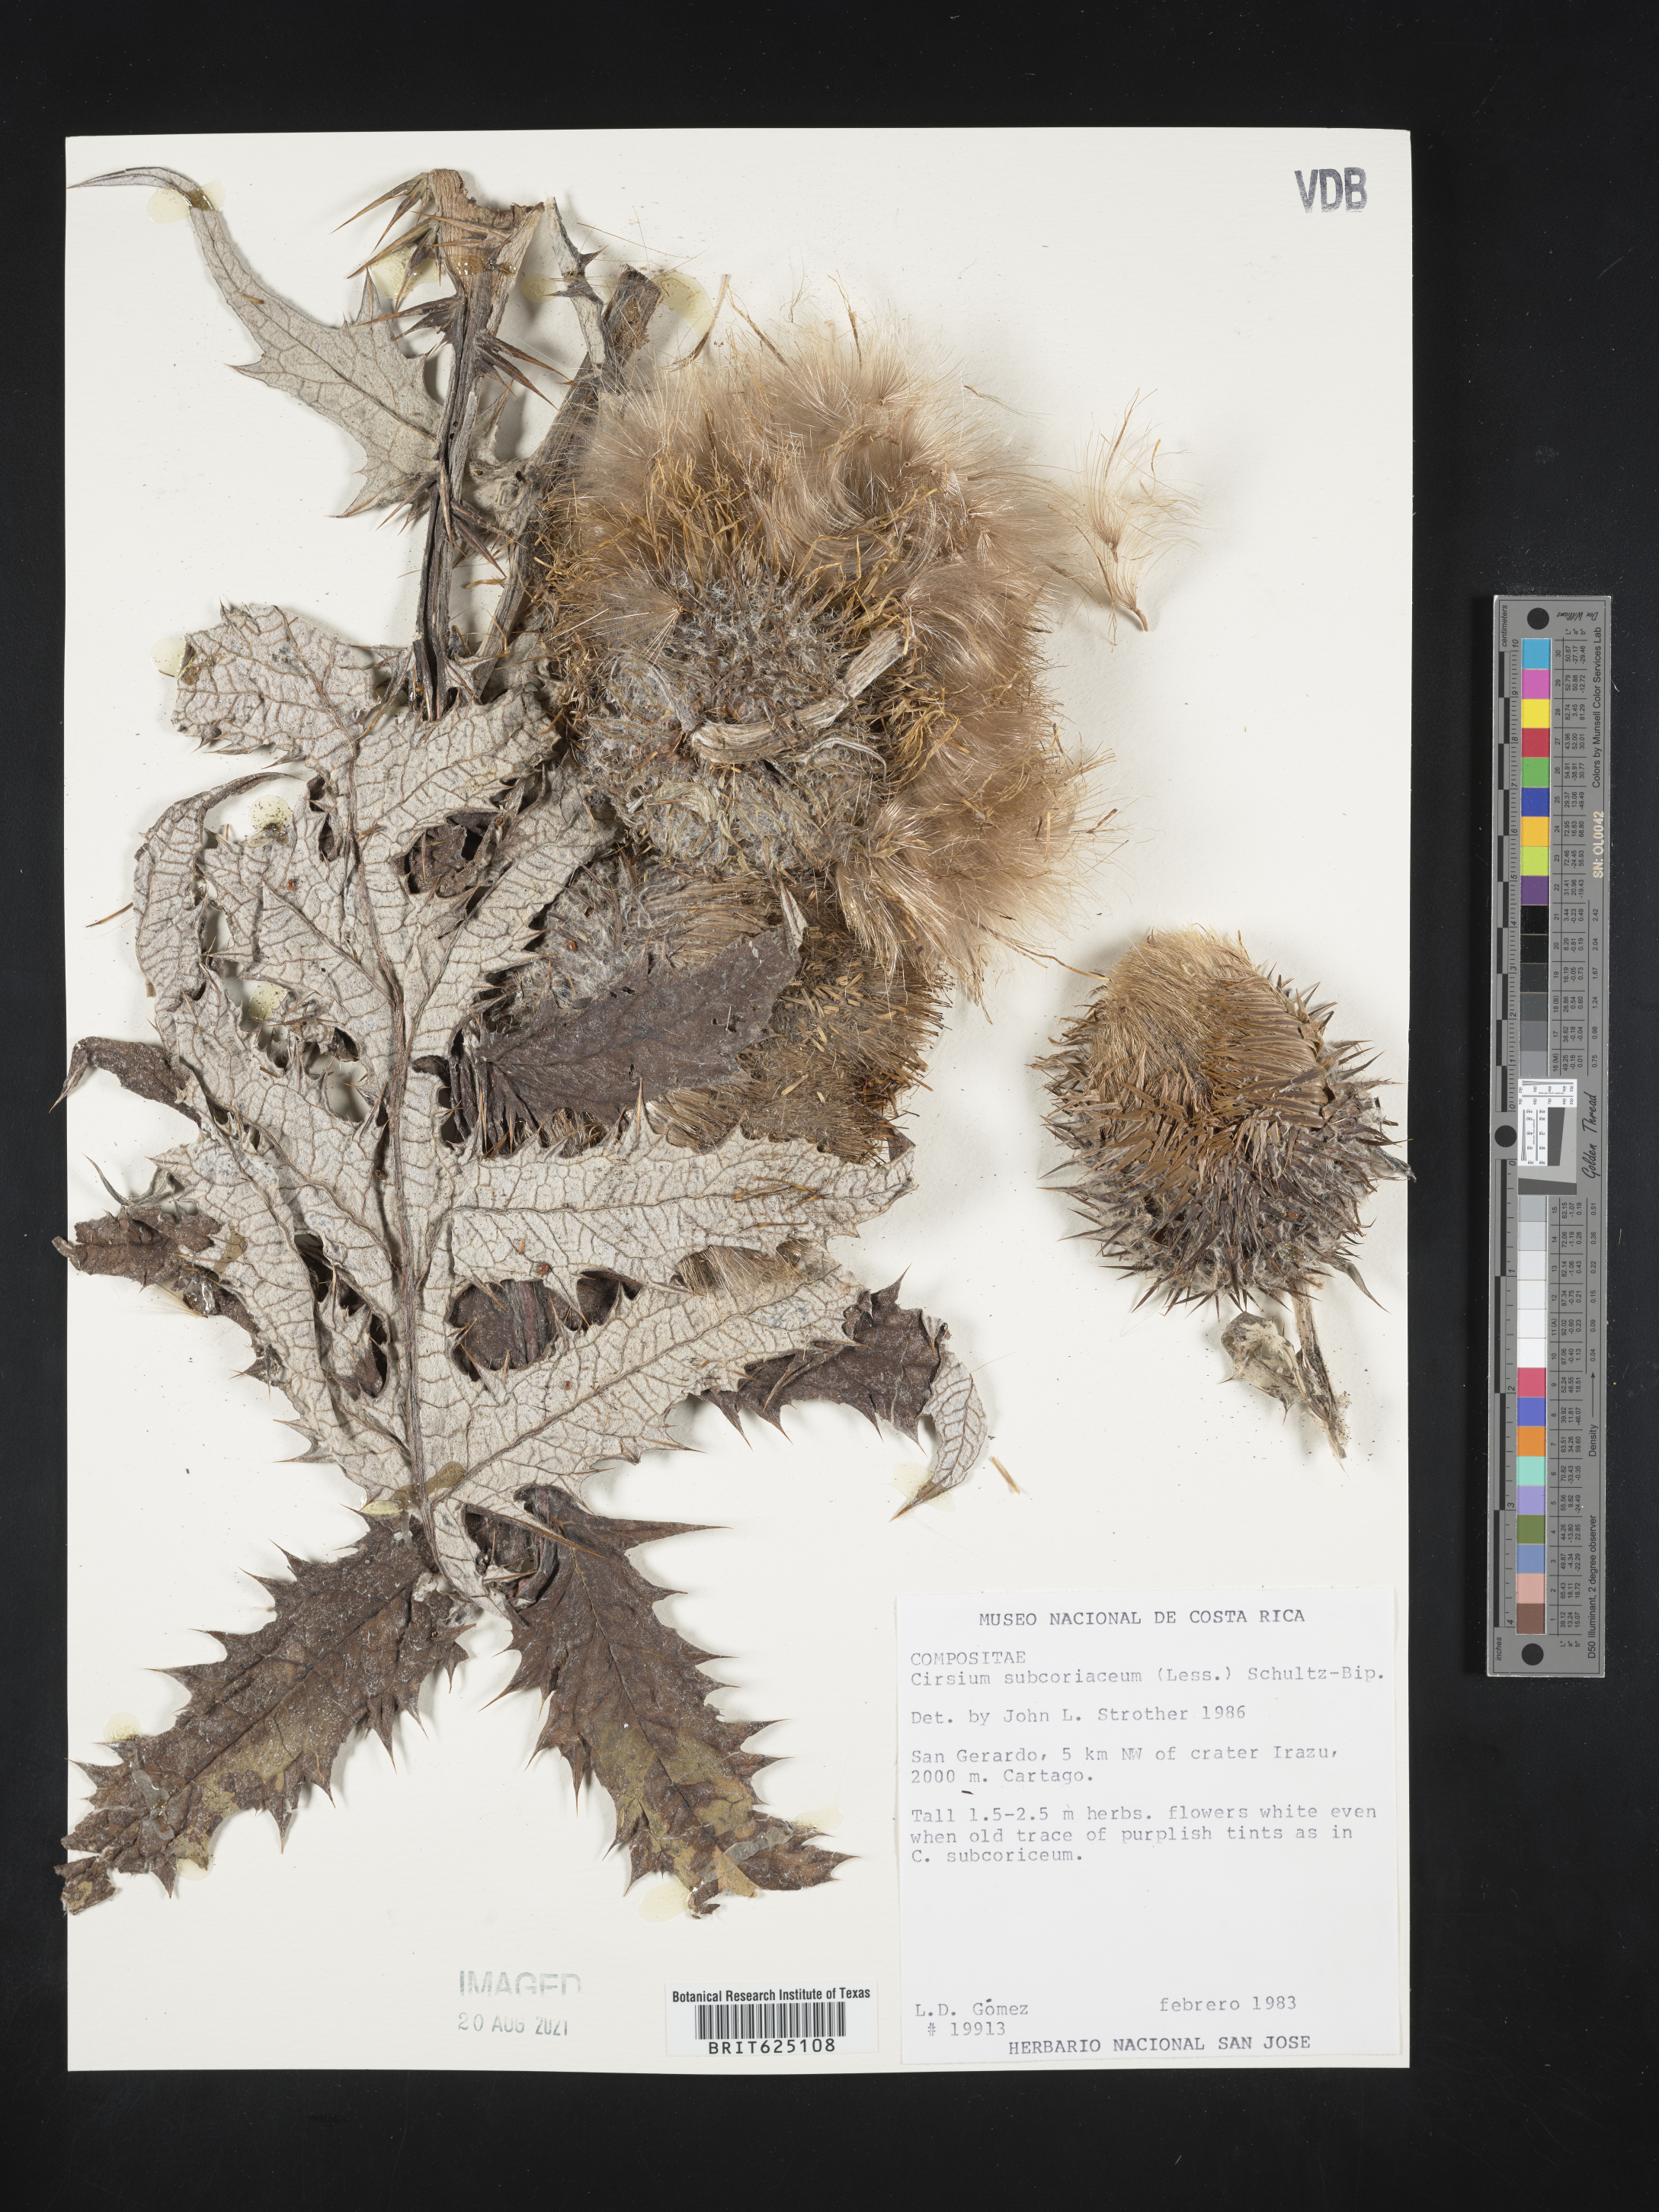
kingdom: Plantae
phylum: Tracheophyta
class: Magnoliopsida
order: Asterales
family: Asteraceae
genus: Cirsium
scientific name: Cirsium subcoriaceum
